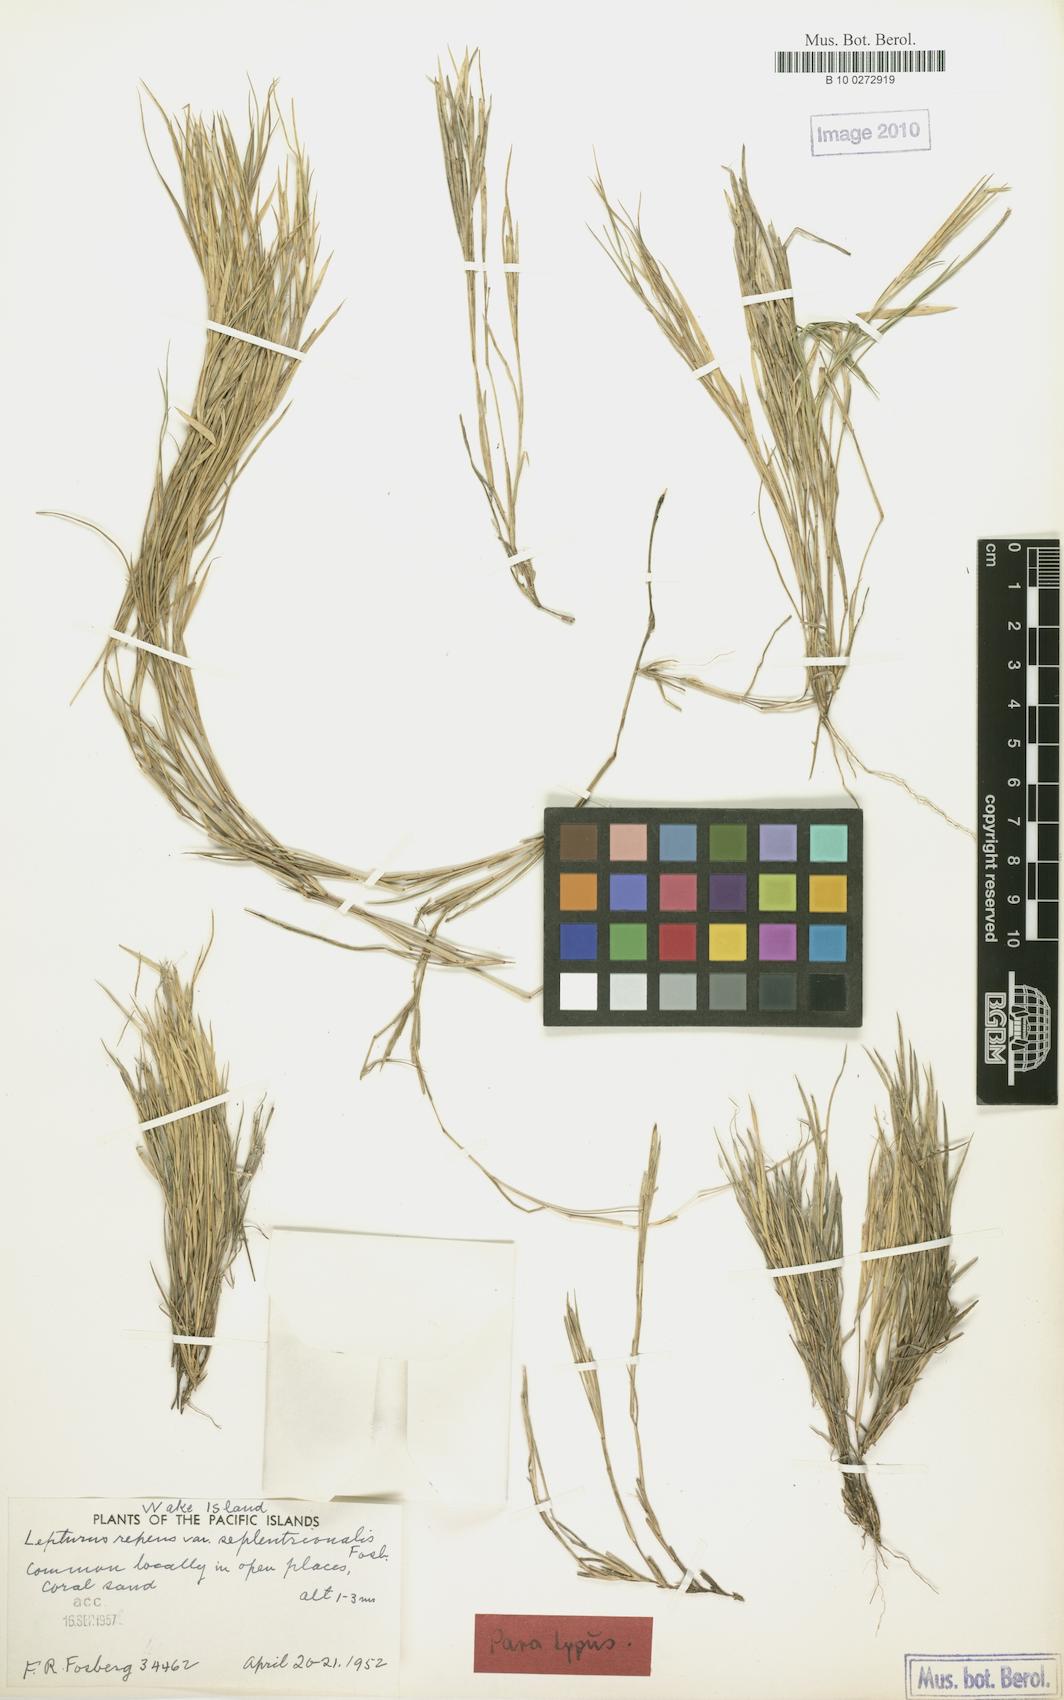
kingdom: Plantae
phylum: Tracheophyta
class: Liliopsida
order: Poales
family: Poaceae
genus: Lepturus
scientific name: Lepturus repens
